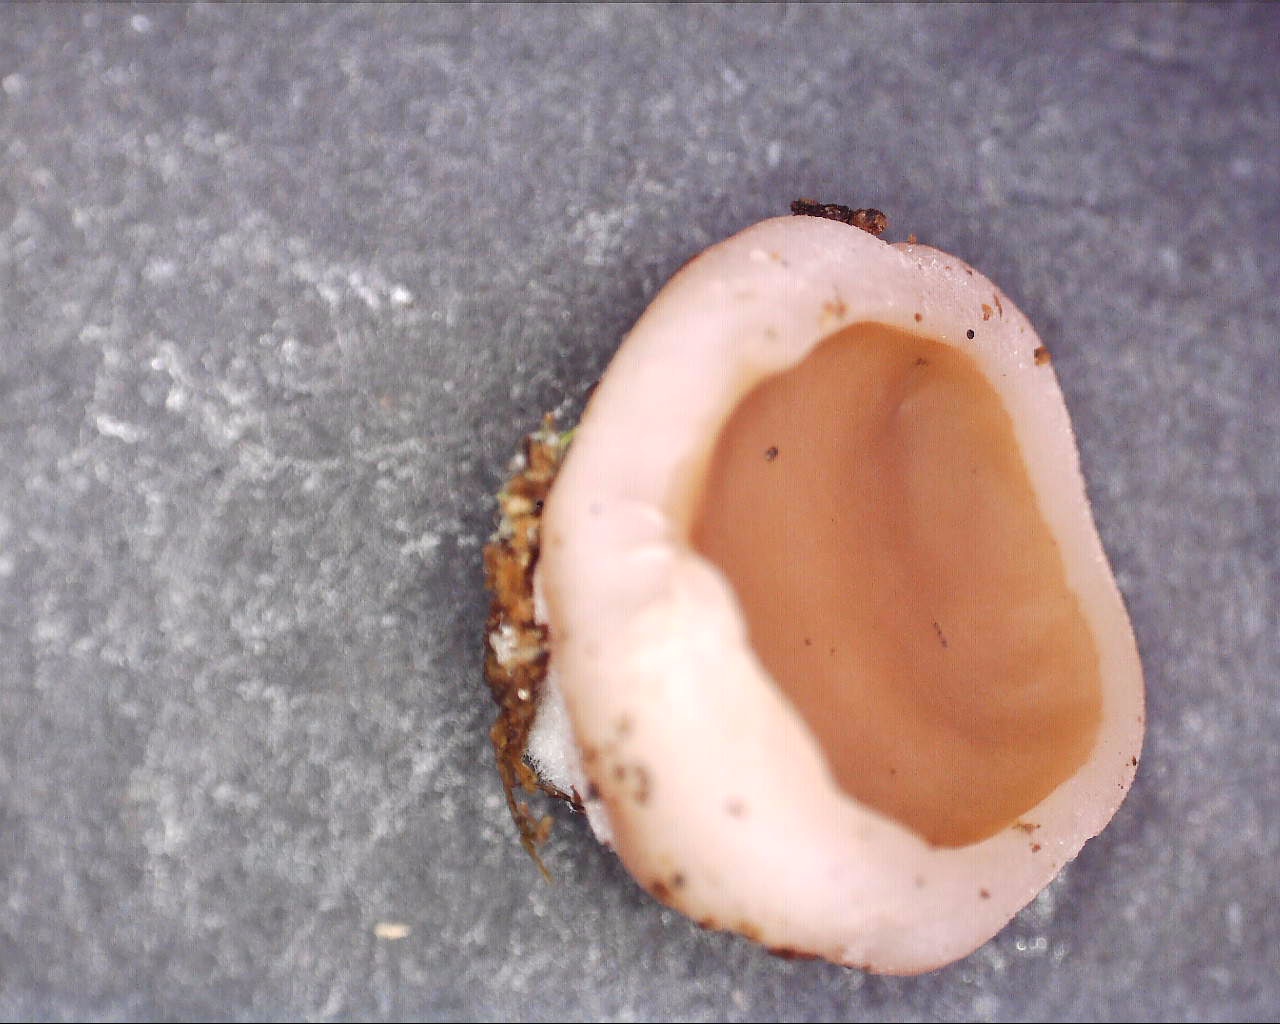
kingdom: Fungi
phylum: Ascomycota
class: Pezizomycetes
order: Pezizales
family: Discinaceae
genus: Discina
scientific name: Discina ancilis
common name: udbredt stenmorkel
